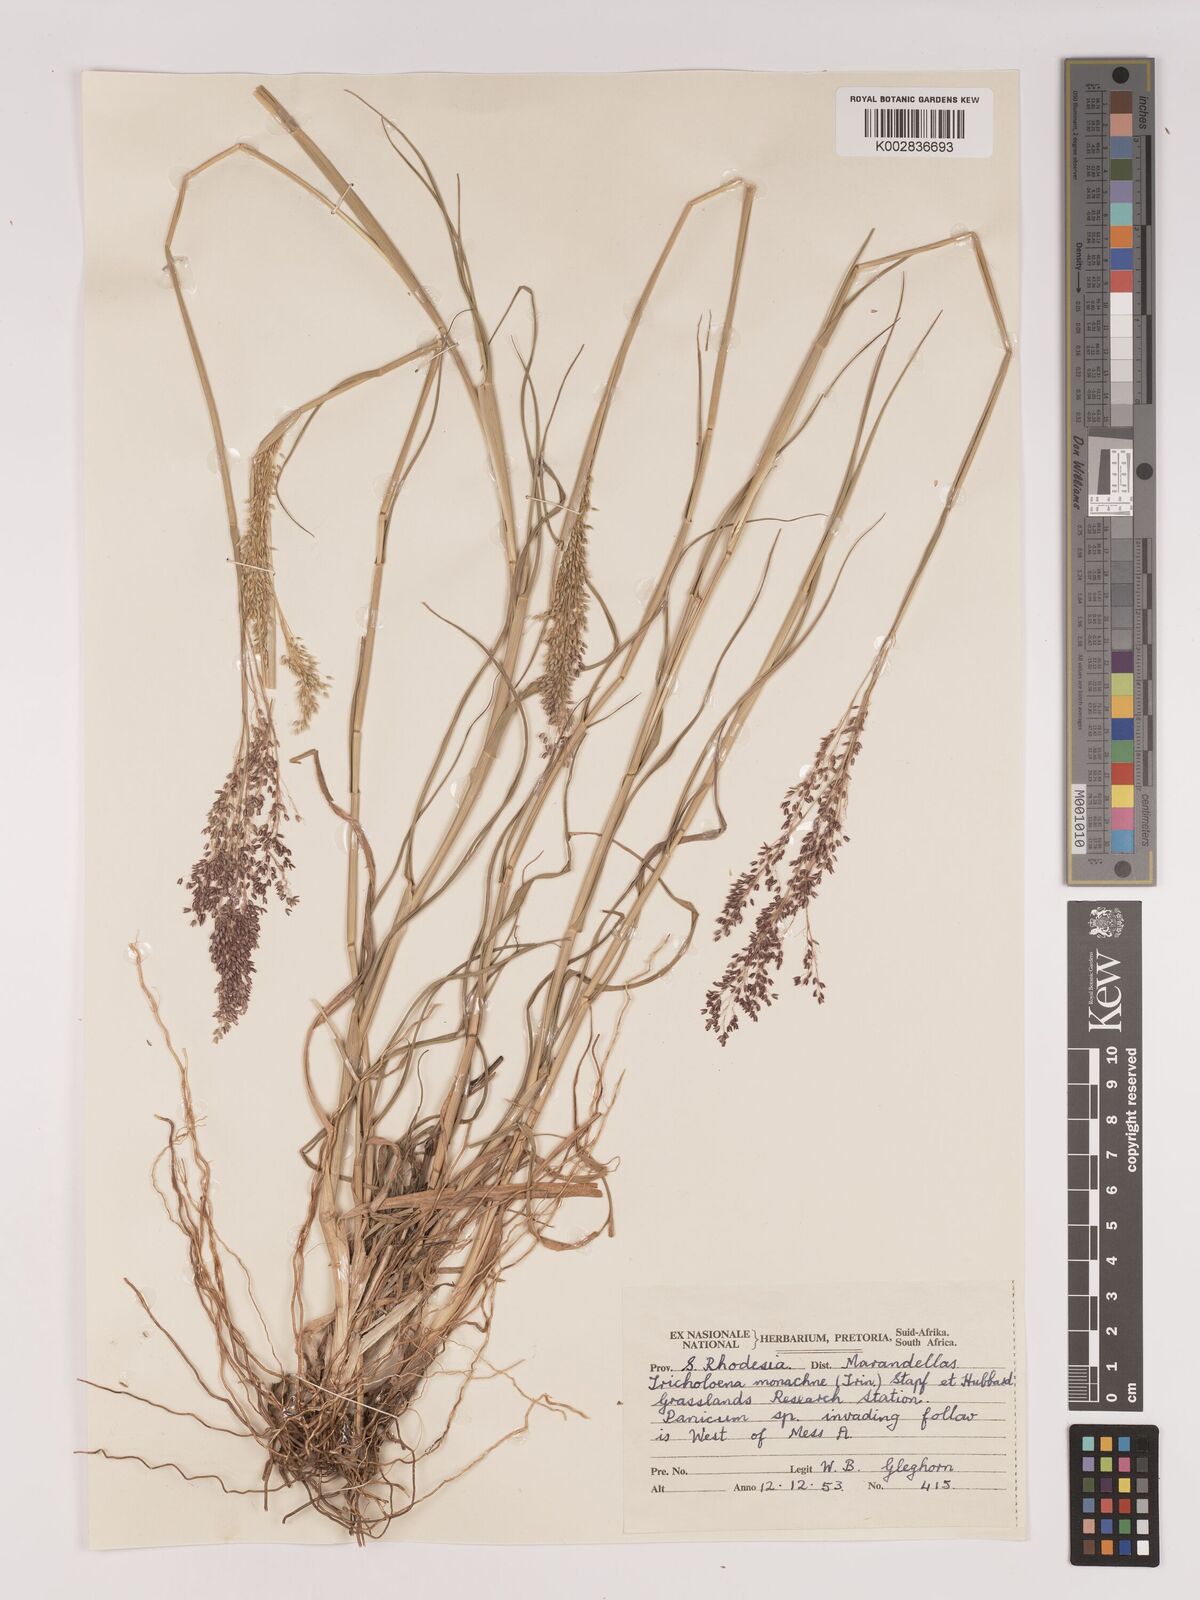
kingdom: Plantae
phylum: Tracheophyta
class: Liliopsida
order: Poales
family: Poaceae
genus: Tricholaena
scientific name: Tricholaena monachne
